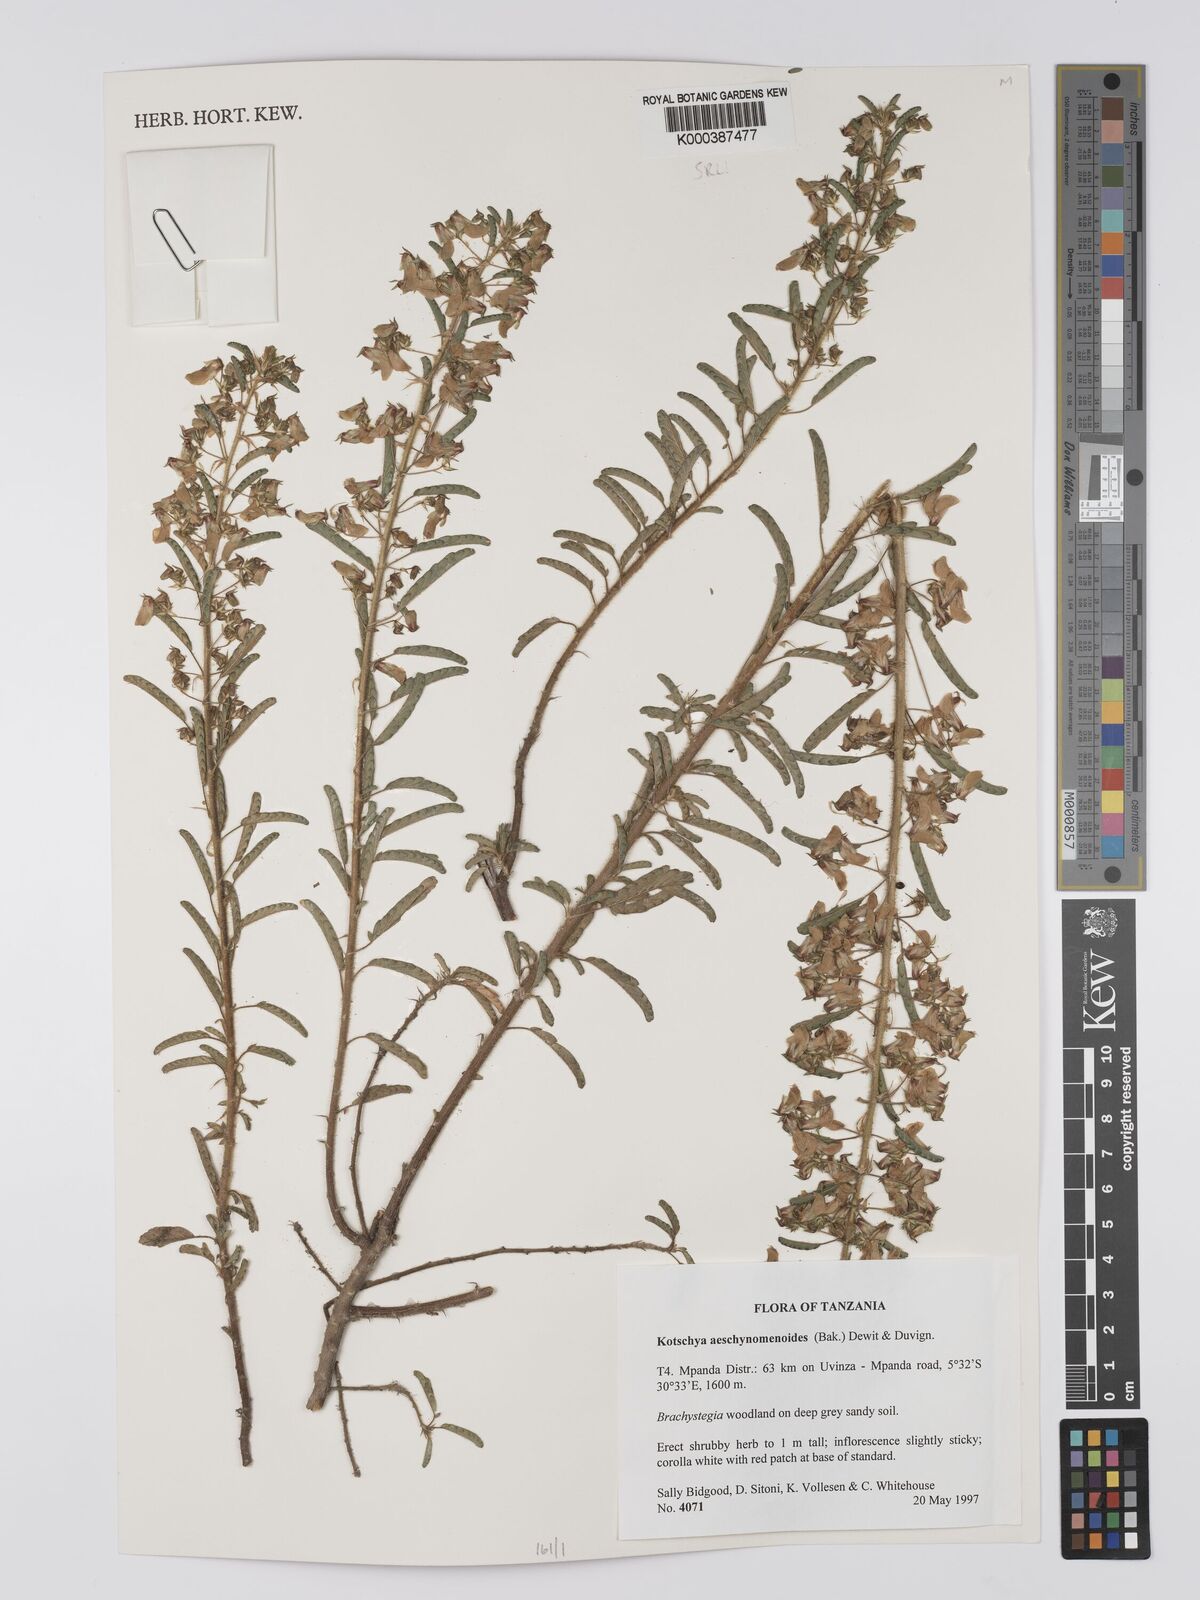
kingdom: Plantae
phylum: Tracheophyta
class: Magnoliopsida
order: Fabales
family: Fabaceae
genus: Kotschya
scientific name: Kotschya aeschynomenoides
